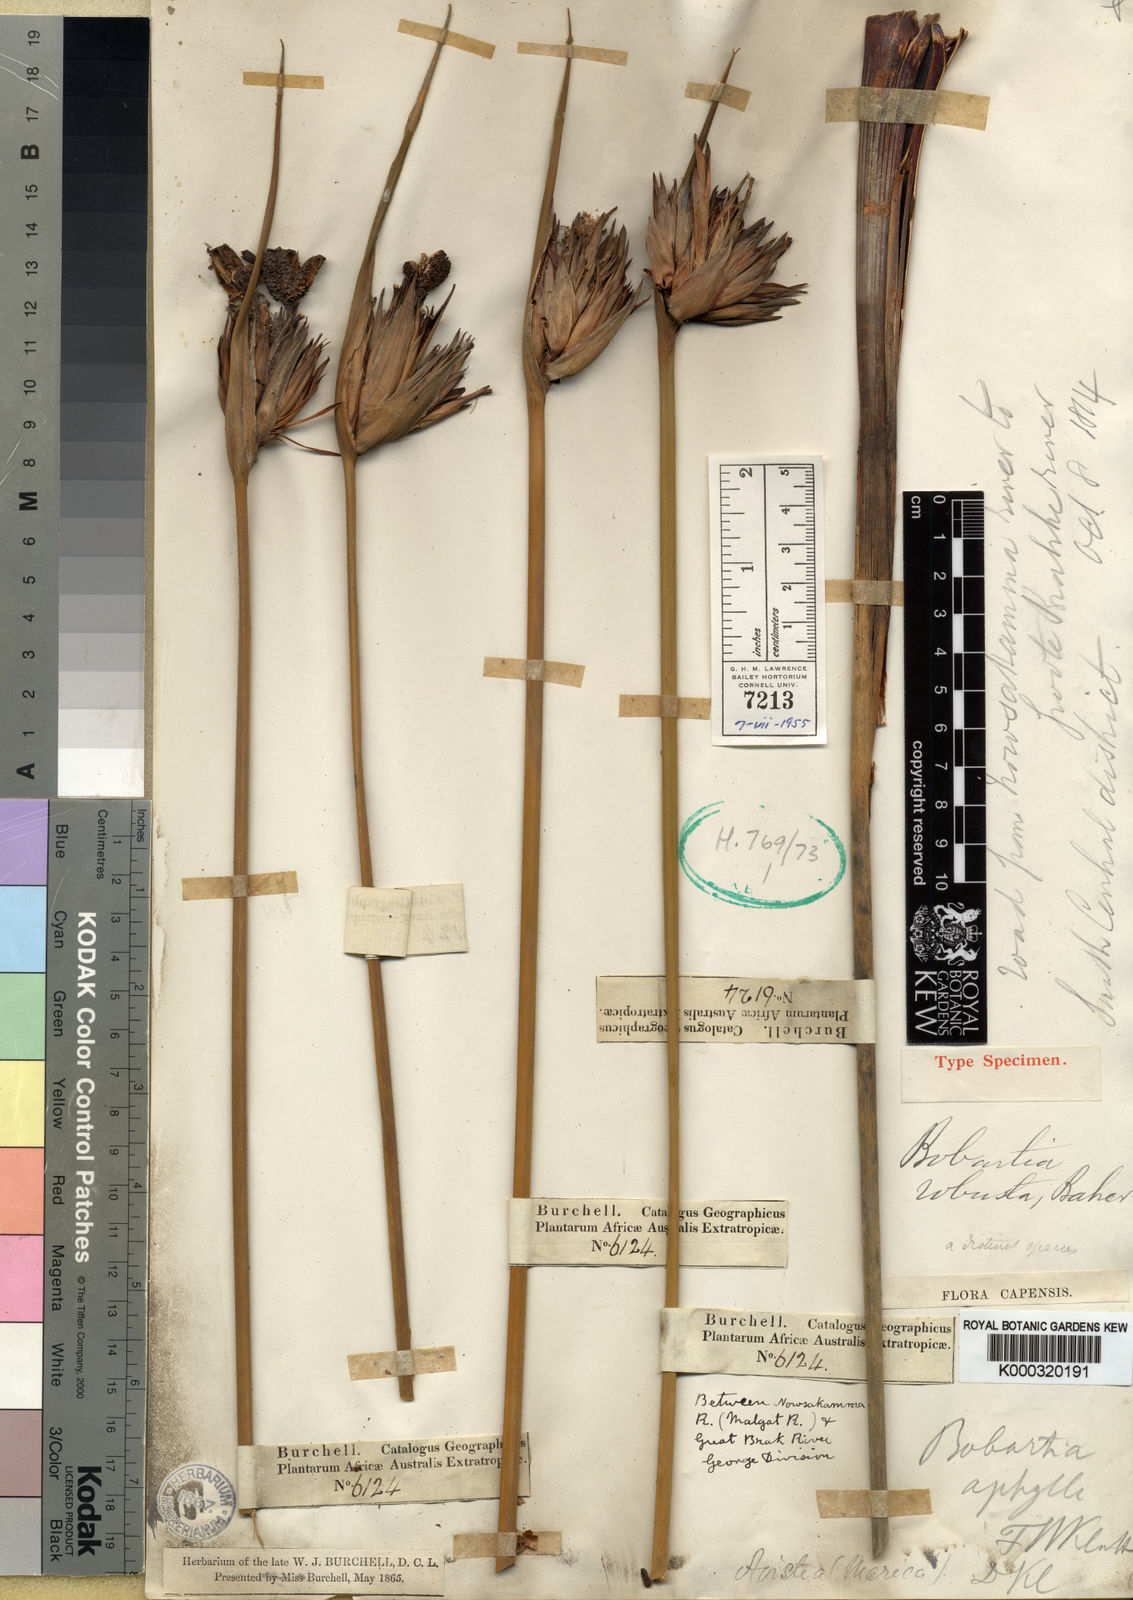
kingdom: Plantae
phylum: Tracheophyta
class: Liliopsida
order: Asparagales
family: Iridaceae
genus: Bobartia
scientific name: Bobartia robusta
